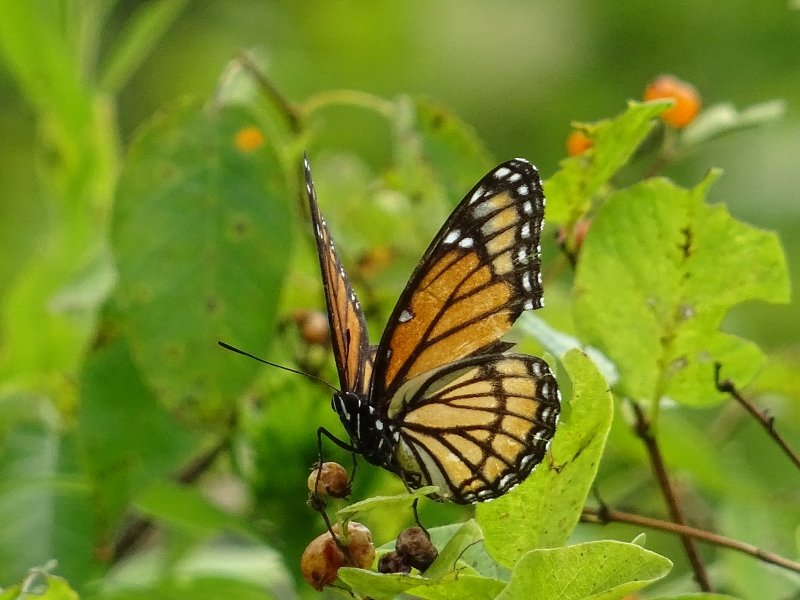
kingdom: Animalia
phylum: Arthropoda
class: Insecta
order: Lepidoptera
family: Nymphalidae
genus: Limenitis
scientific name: Limenitis archippus
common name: Viceroy
